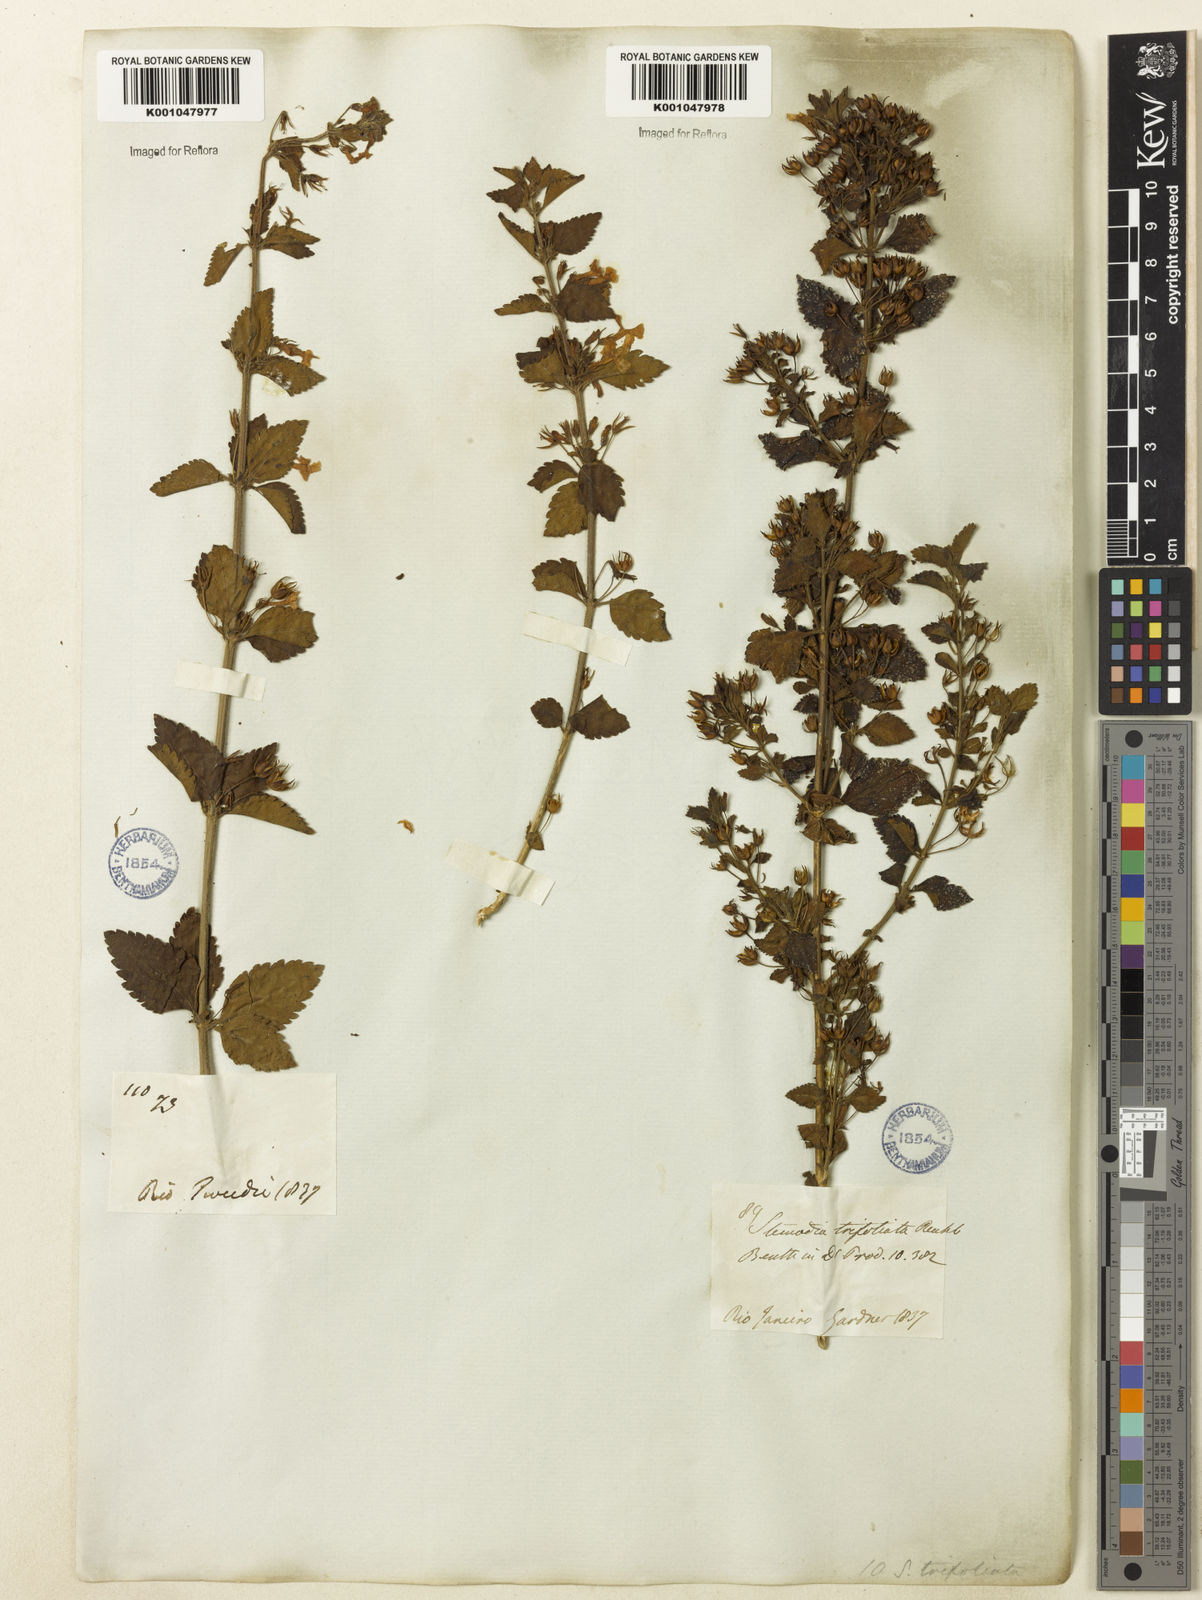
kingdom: Plantae
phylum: Tracheophyta
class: Magnoliopsida
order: Lamiales
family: Plantaginaceae
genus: Stemodia
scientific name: Stemodia trifoliata
